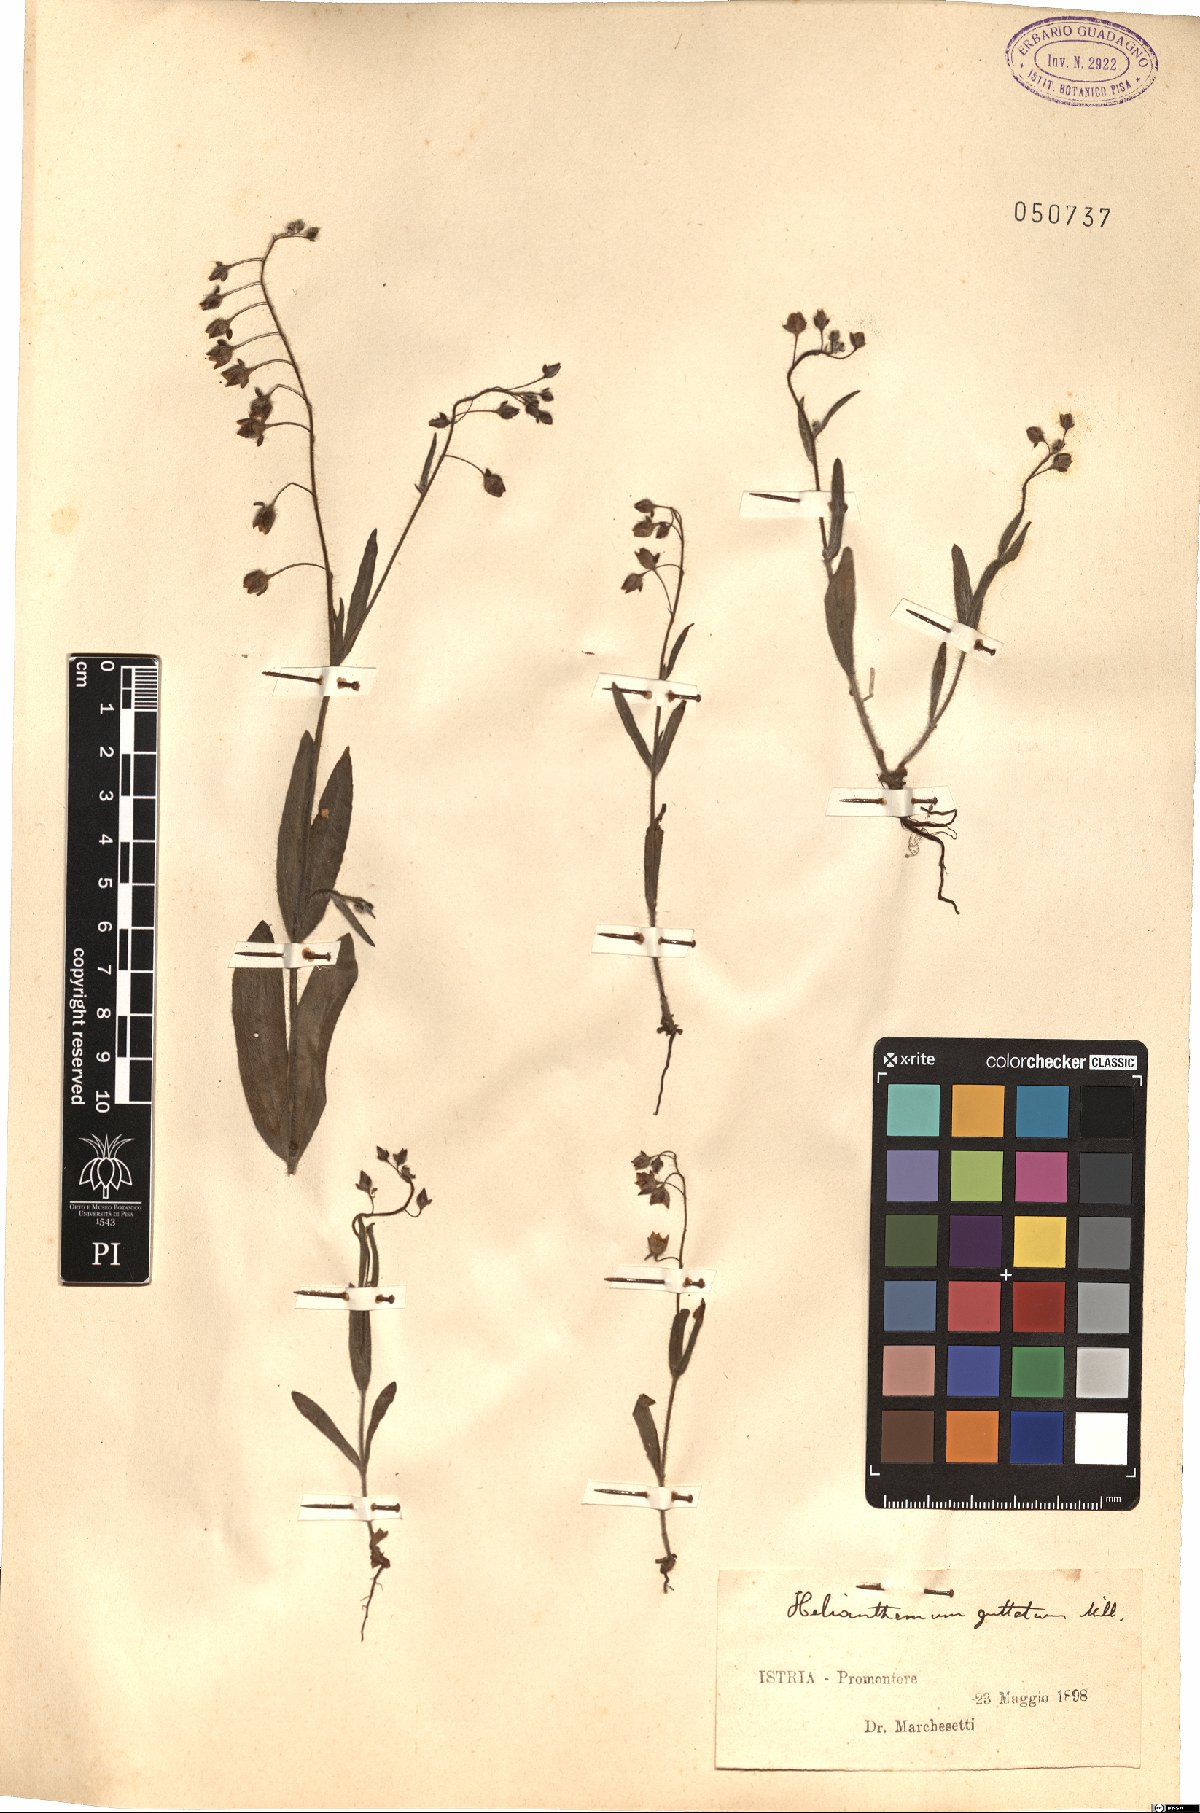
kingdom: Plantae
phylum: Tracheophyta
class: Magnoliopsida
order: Malvales
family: Cistaceae
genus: Tuberaria
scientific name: Tuberaria guttata
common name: Spotted rock-rose
